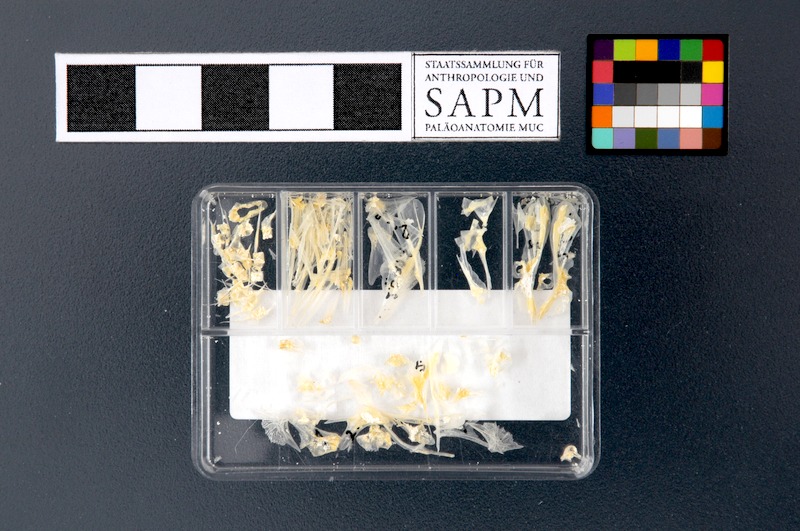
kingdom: Animalia
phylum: Chordata
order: Perciformes
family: Caproidae
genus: Capros
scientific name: Capros aper
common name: Boarfish
